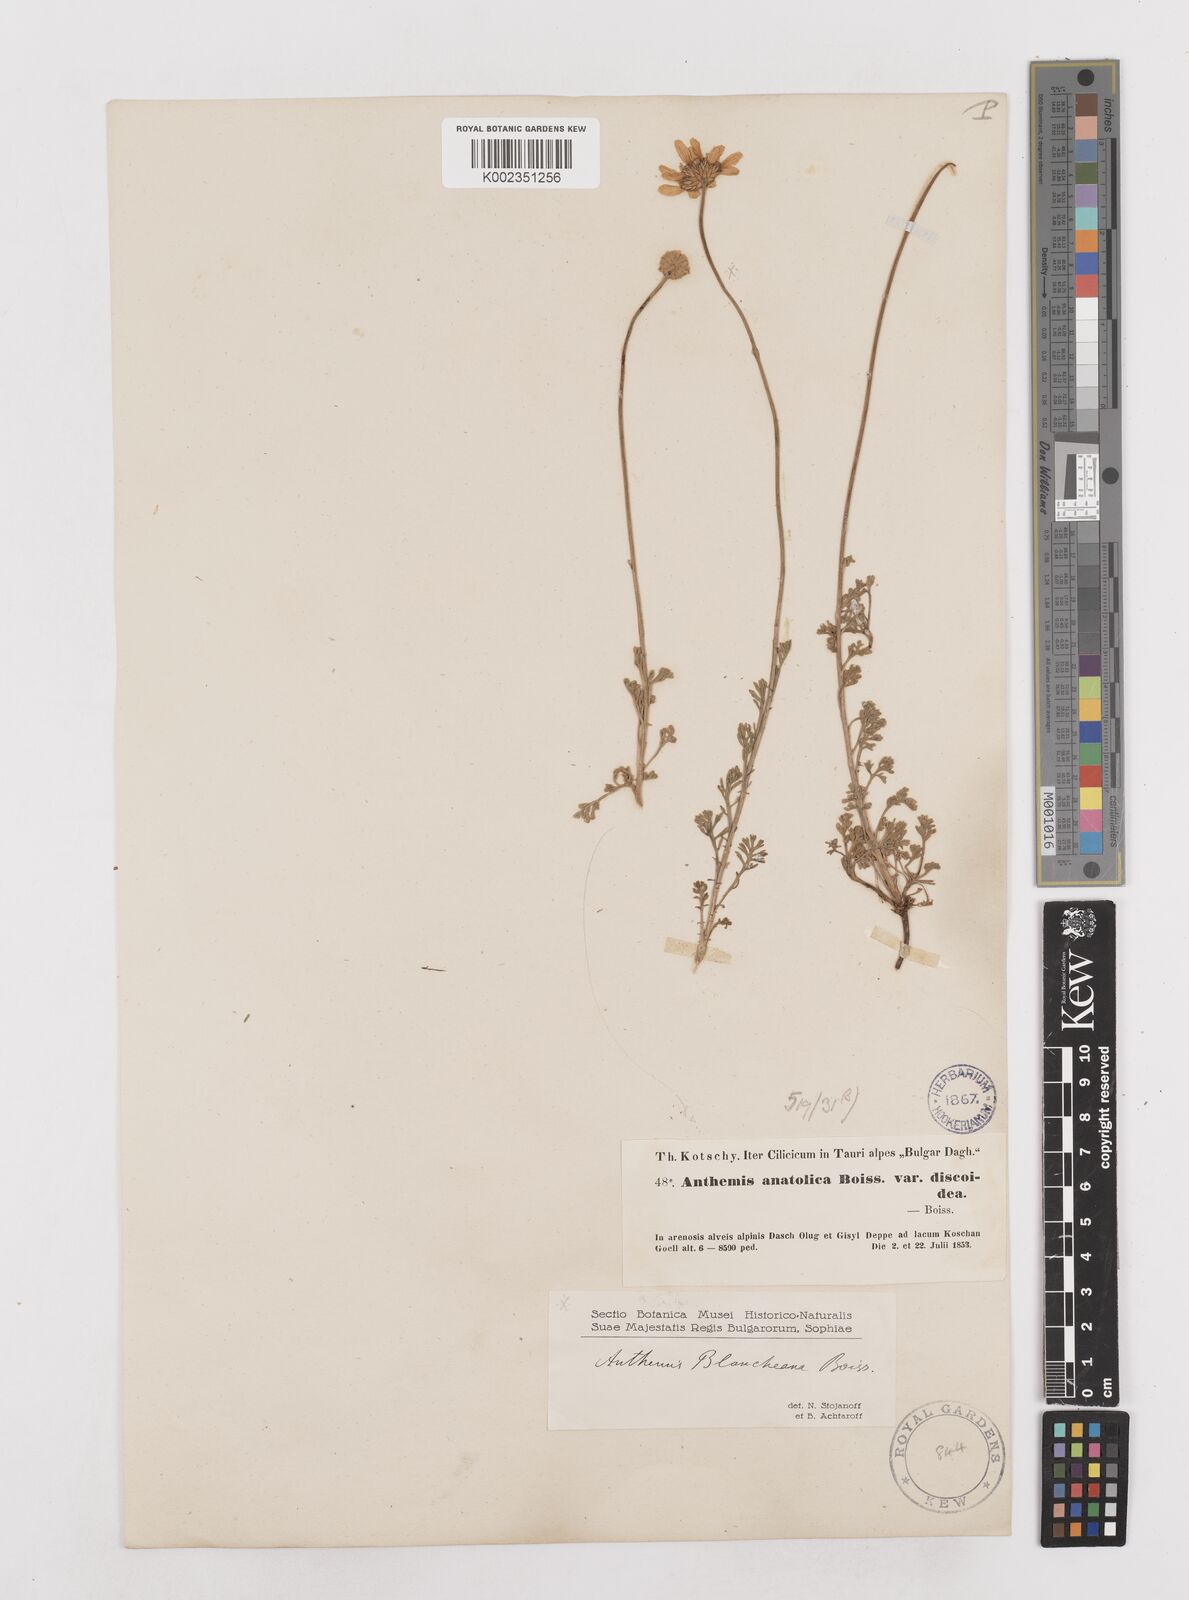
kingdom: Plantae
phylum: Tracheophyta
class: Magnoliopsida
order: Asterales
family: Asteraceae
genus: Anthemis
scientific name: Anthemis cretica
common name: Mountain dog-daisy
